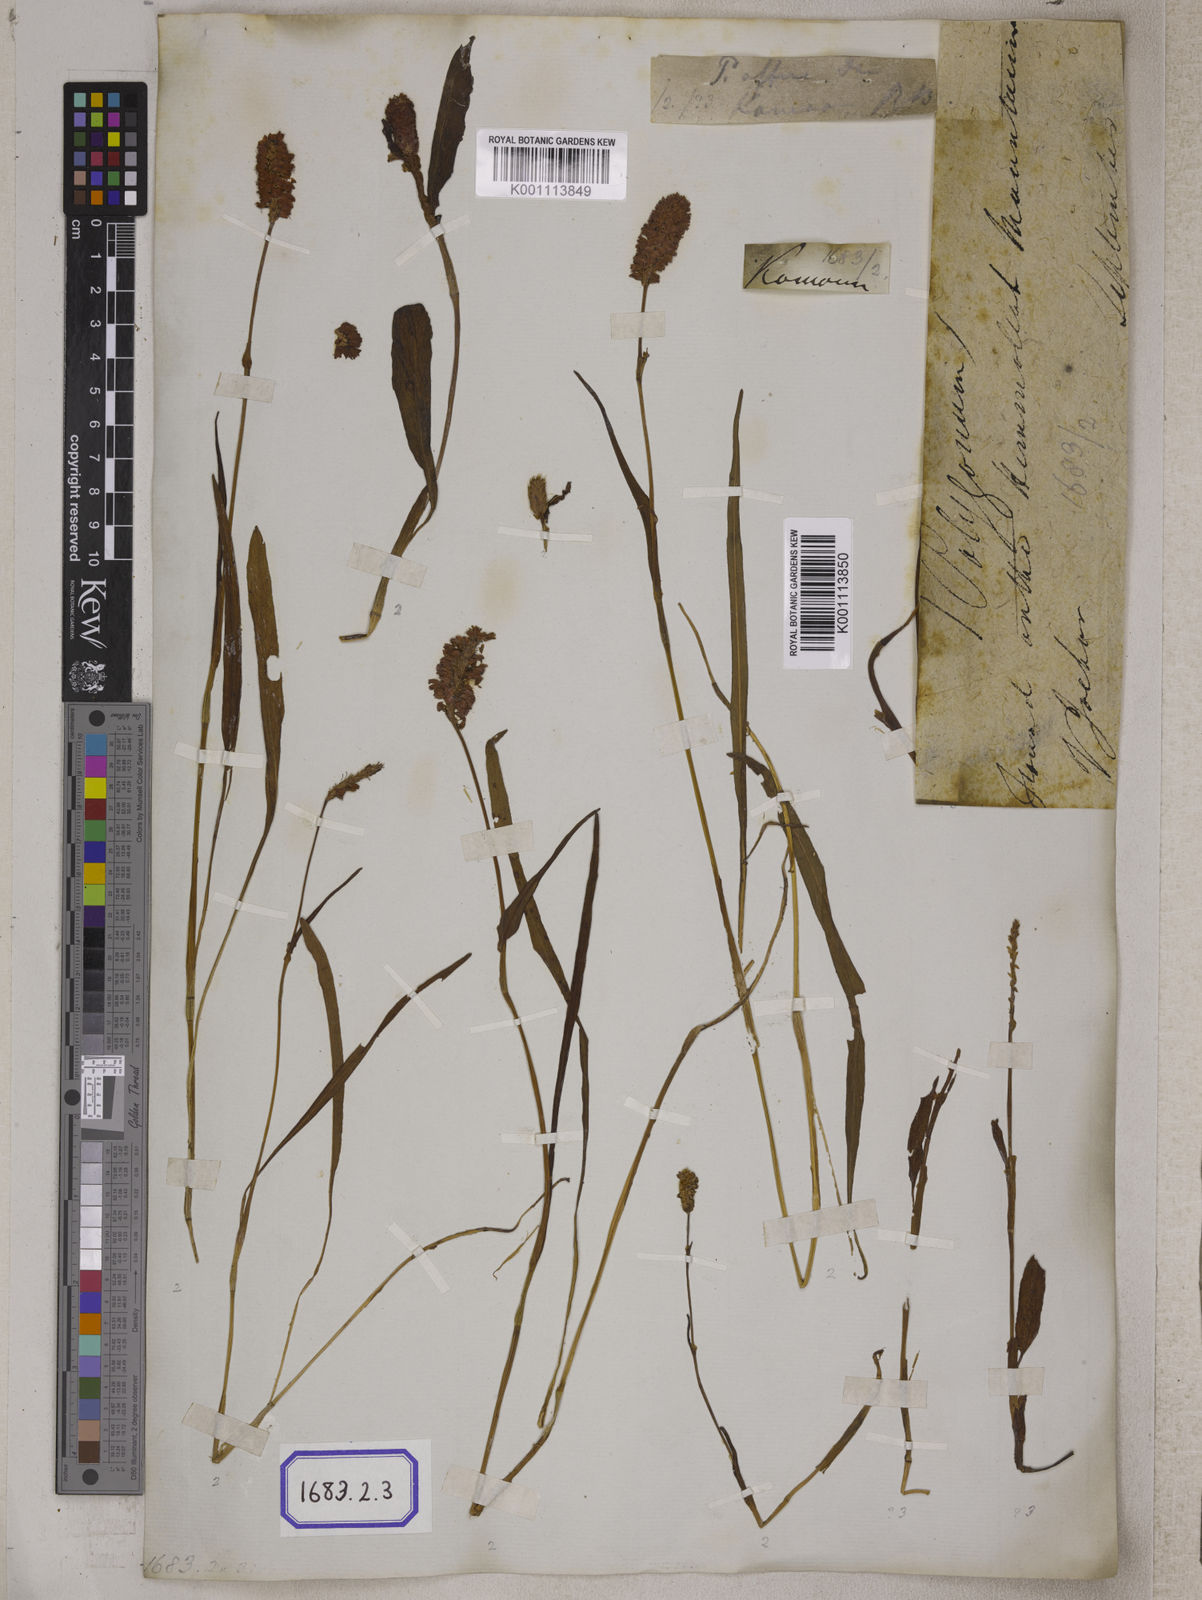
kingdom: Plantae
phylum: Tracheophyta
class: Magnoliopsida
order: Caryophyllales
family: Polygonaceae
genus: Bistorta
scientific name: Bistorta affinis
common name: Himalayan fleeceflower
